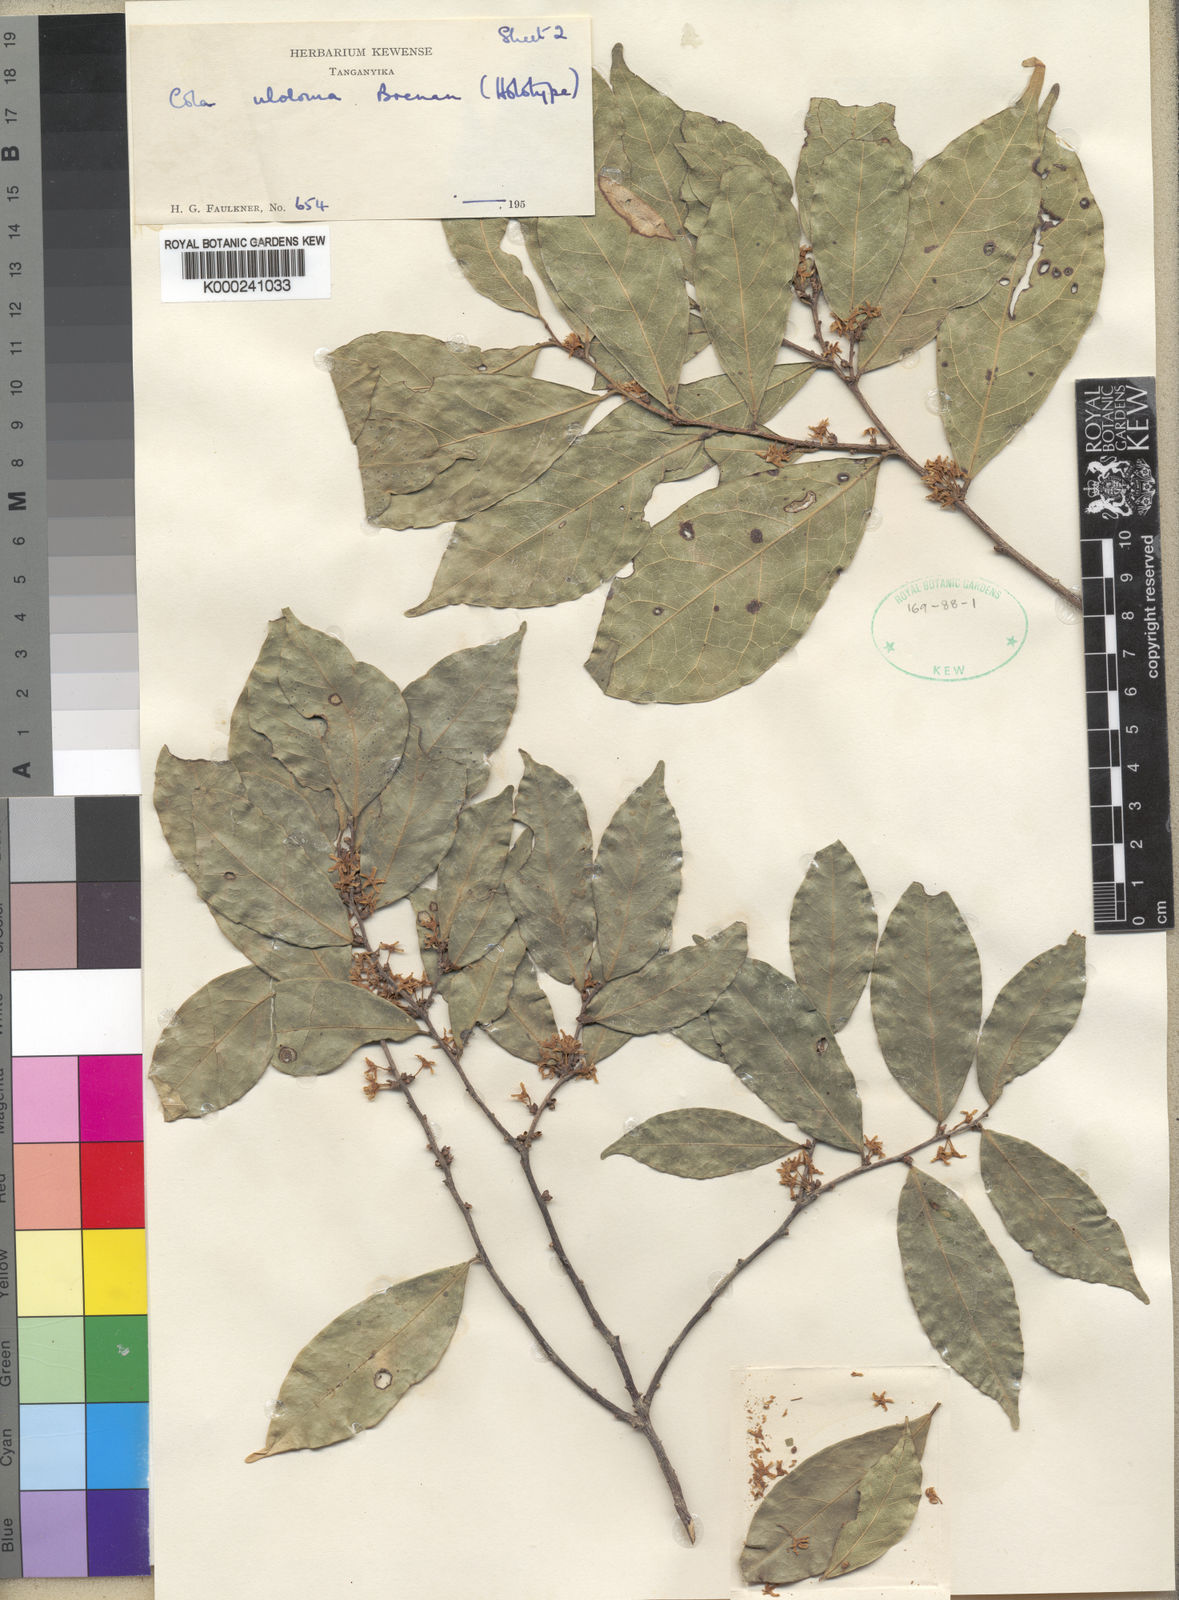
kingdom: Plantae
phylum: Tracheophyta
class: Magnoliopsida
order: Malvales
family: Malvaceae
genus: Cola
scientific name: Cola uloloma
